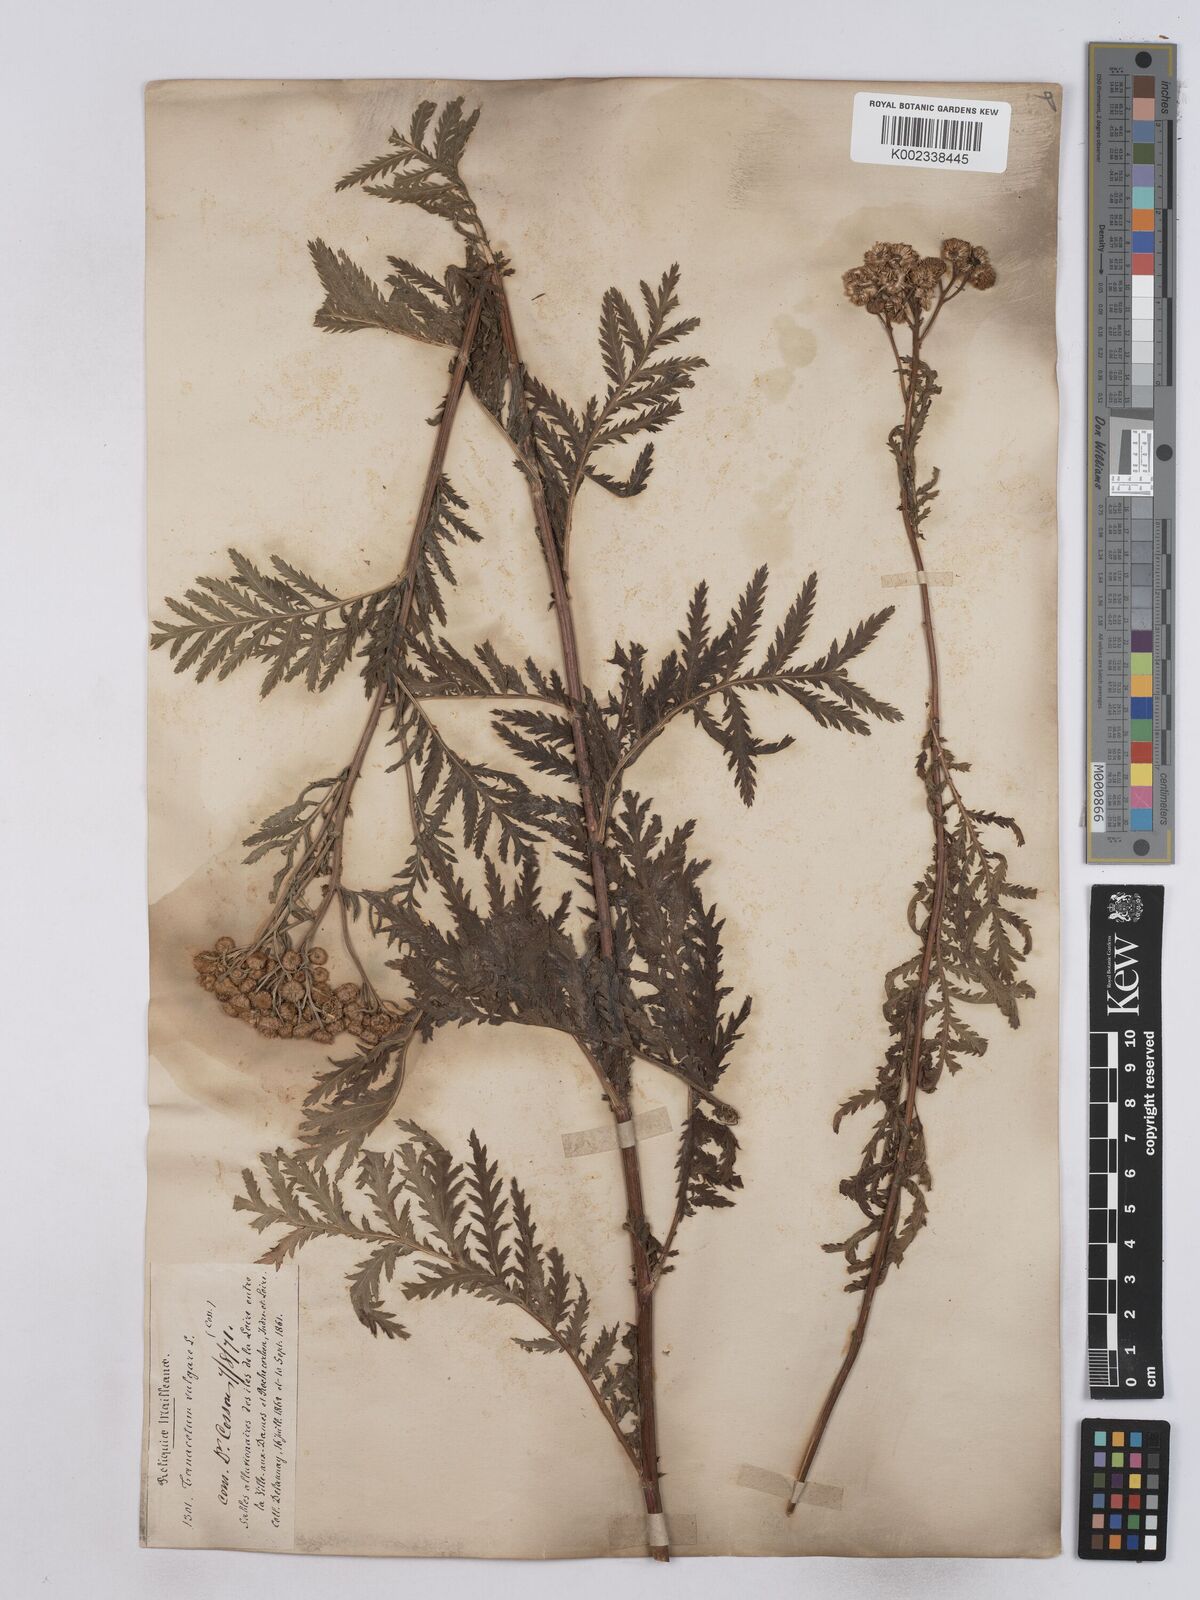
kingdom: Plantae
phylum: Tracheophyta
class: Magnoliopsida
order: Asterales
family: Asteraceae
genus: Tanacetum
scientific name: Tanacetum vulgare
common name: Common tansy
